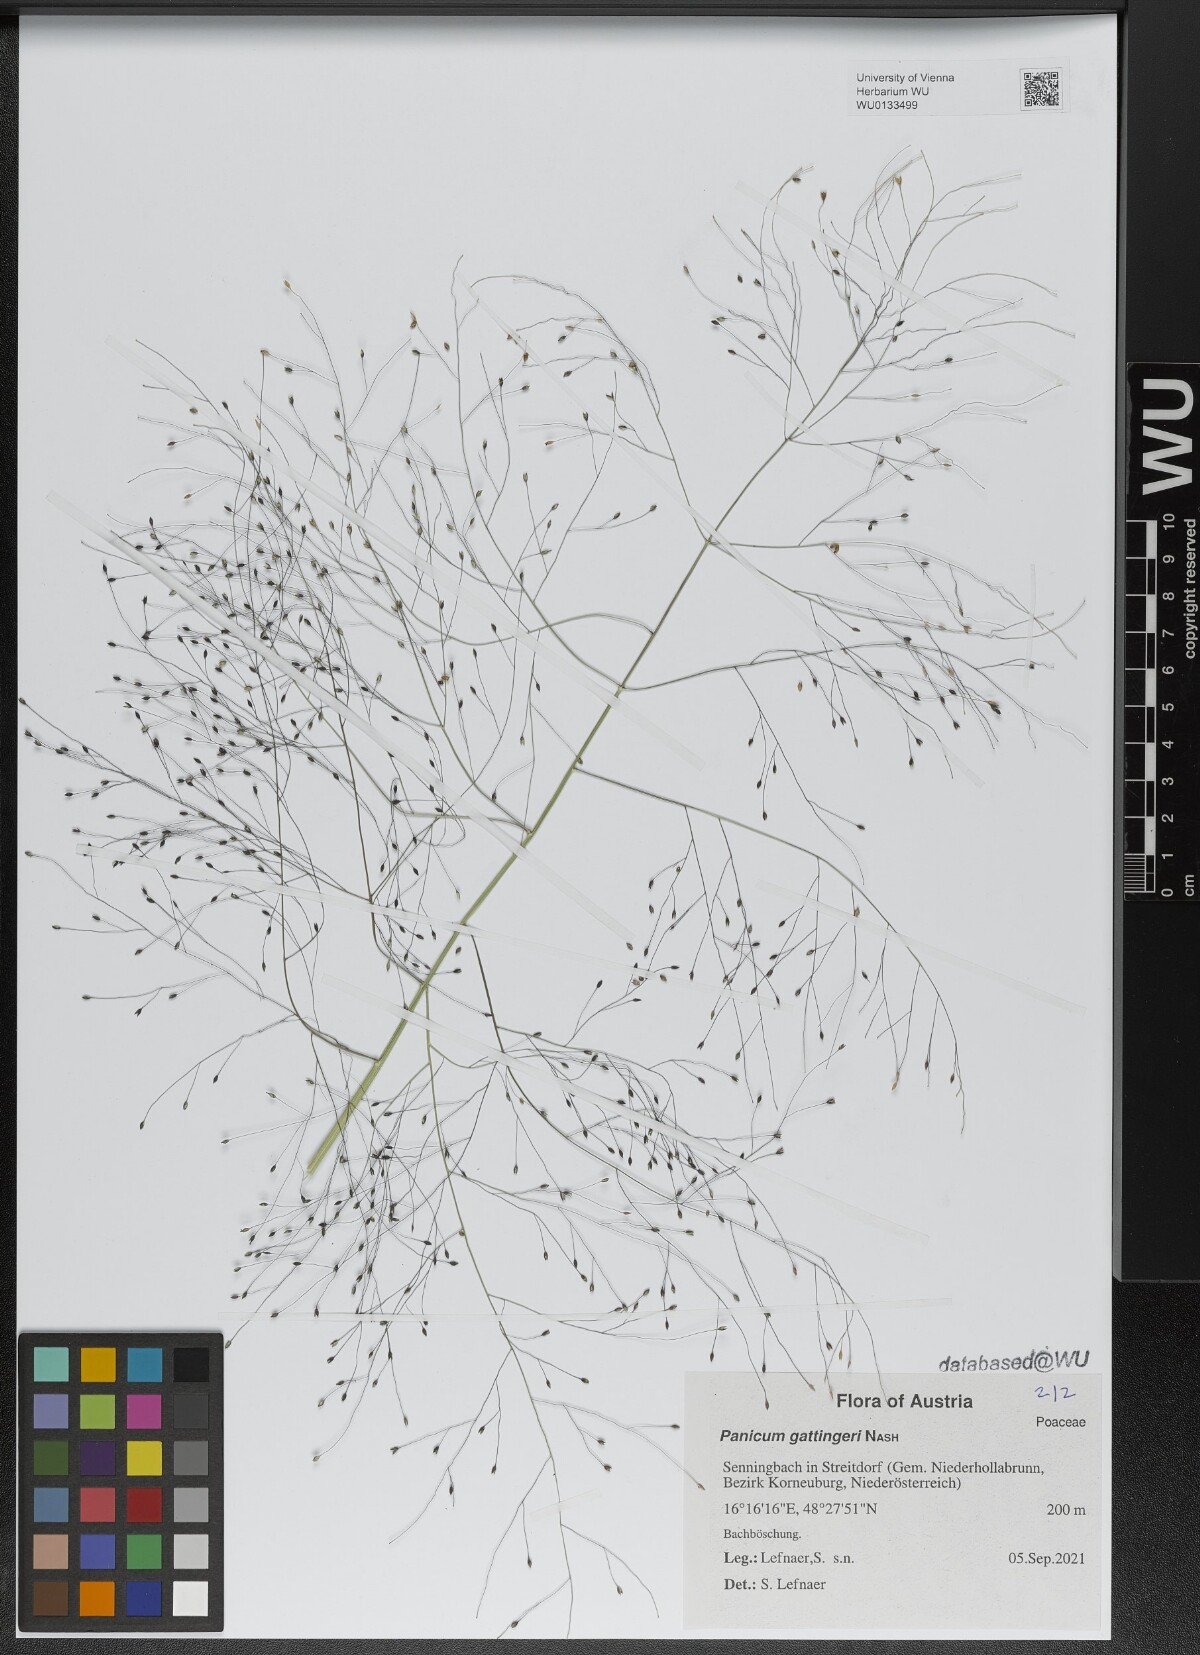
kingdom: Plantae
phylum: Tracheophyta
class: Liliopsida
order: Poales
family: Poaceae
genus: Panicum
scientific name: Panicum gattingeri
